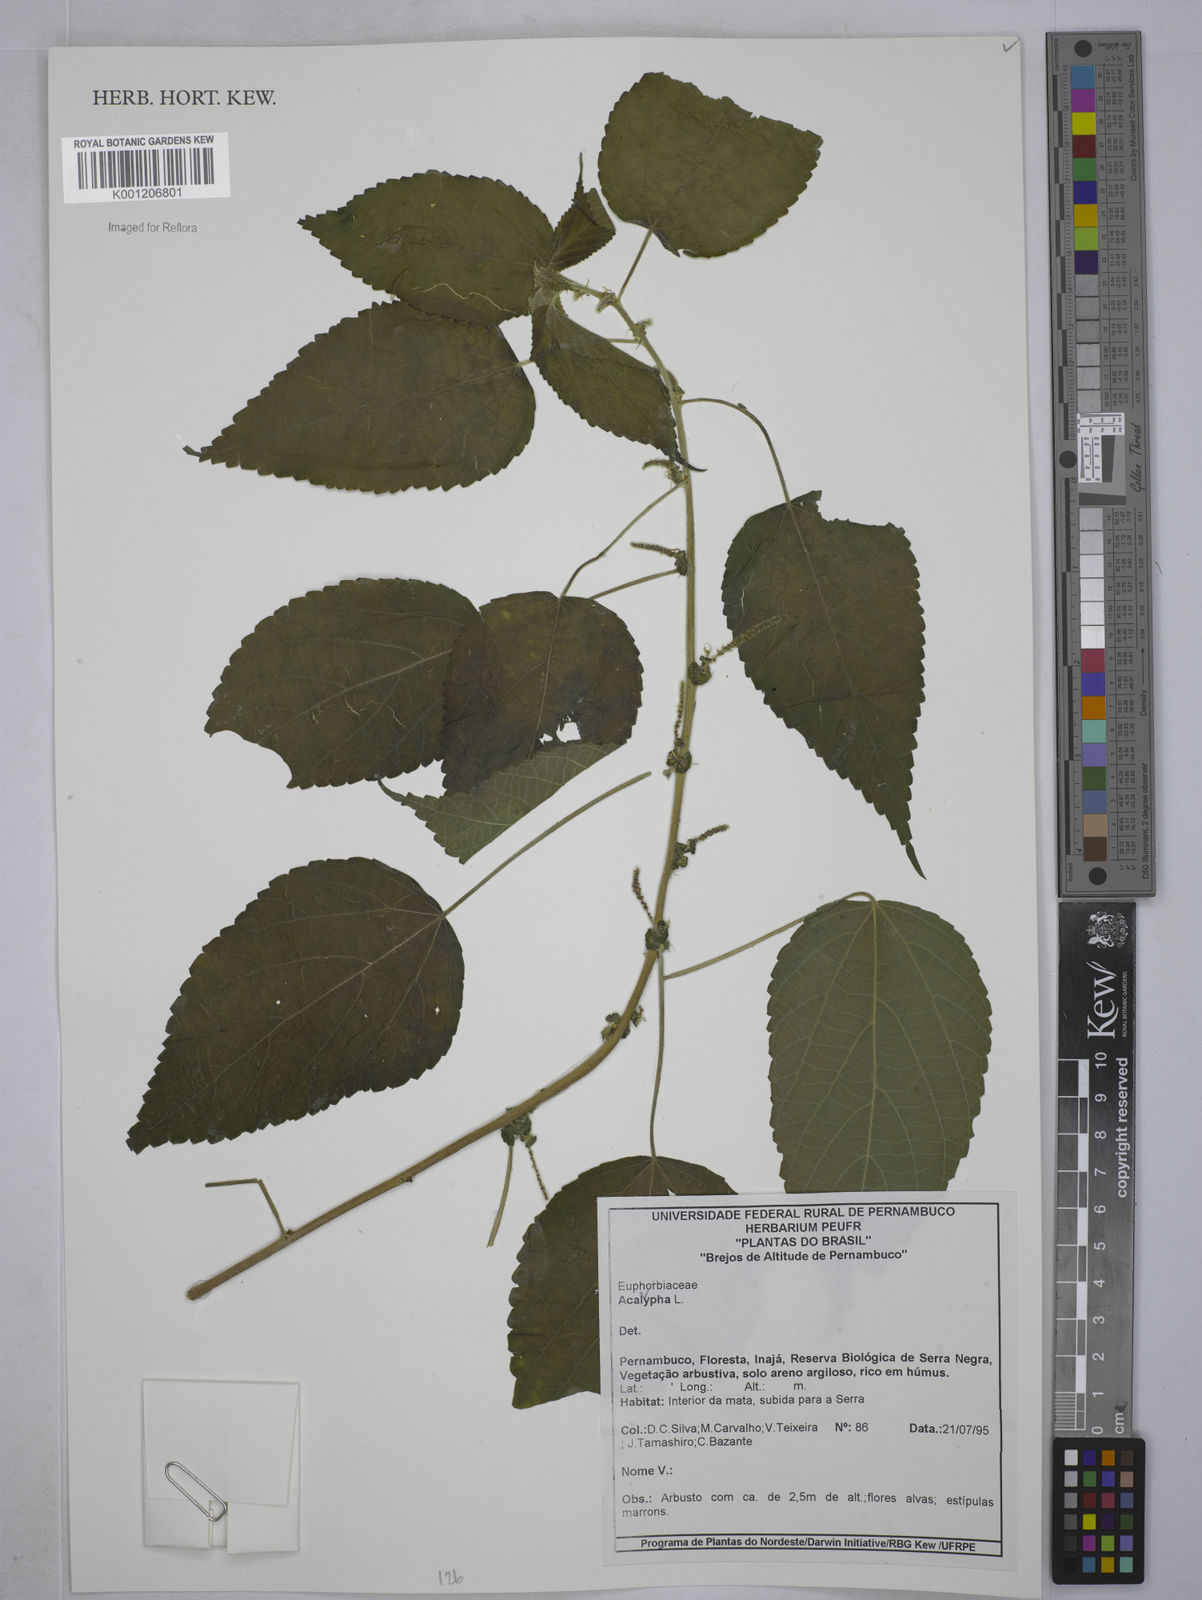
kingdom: Plantae
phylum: Tracheophyta
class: Magnoliopsida
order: Malpighiales
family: Euphorbiaceae
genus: Acalypha
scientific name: Acalypha
